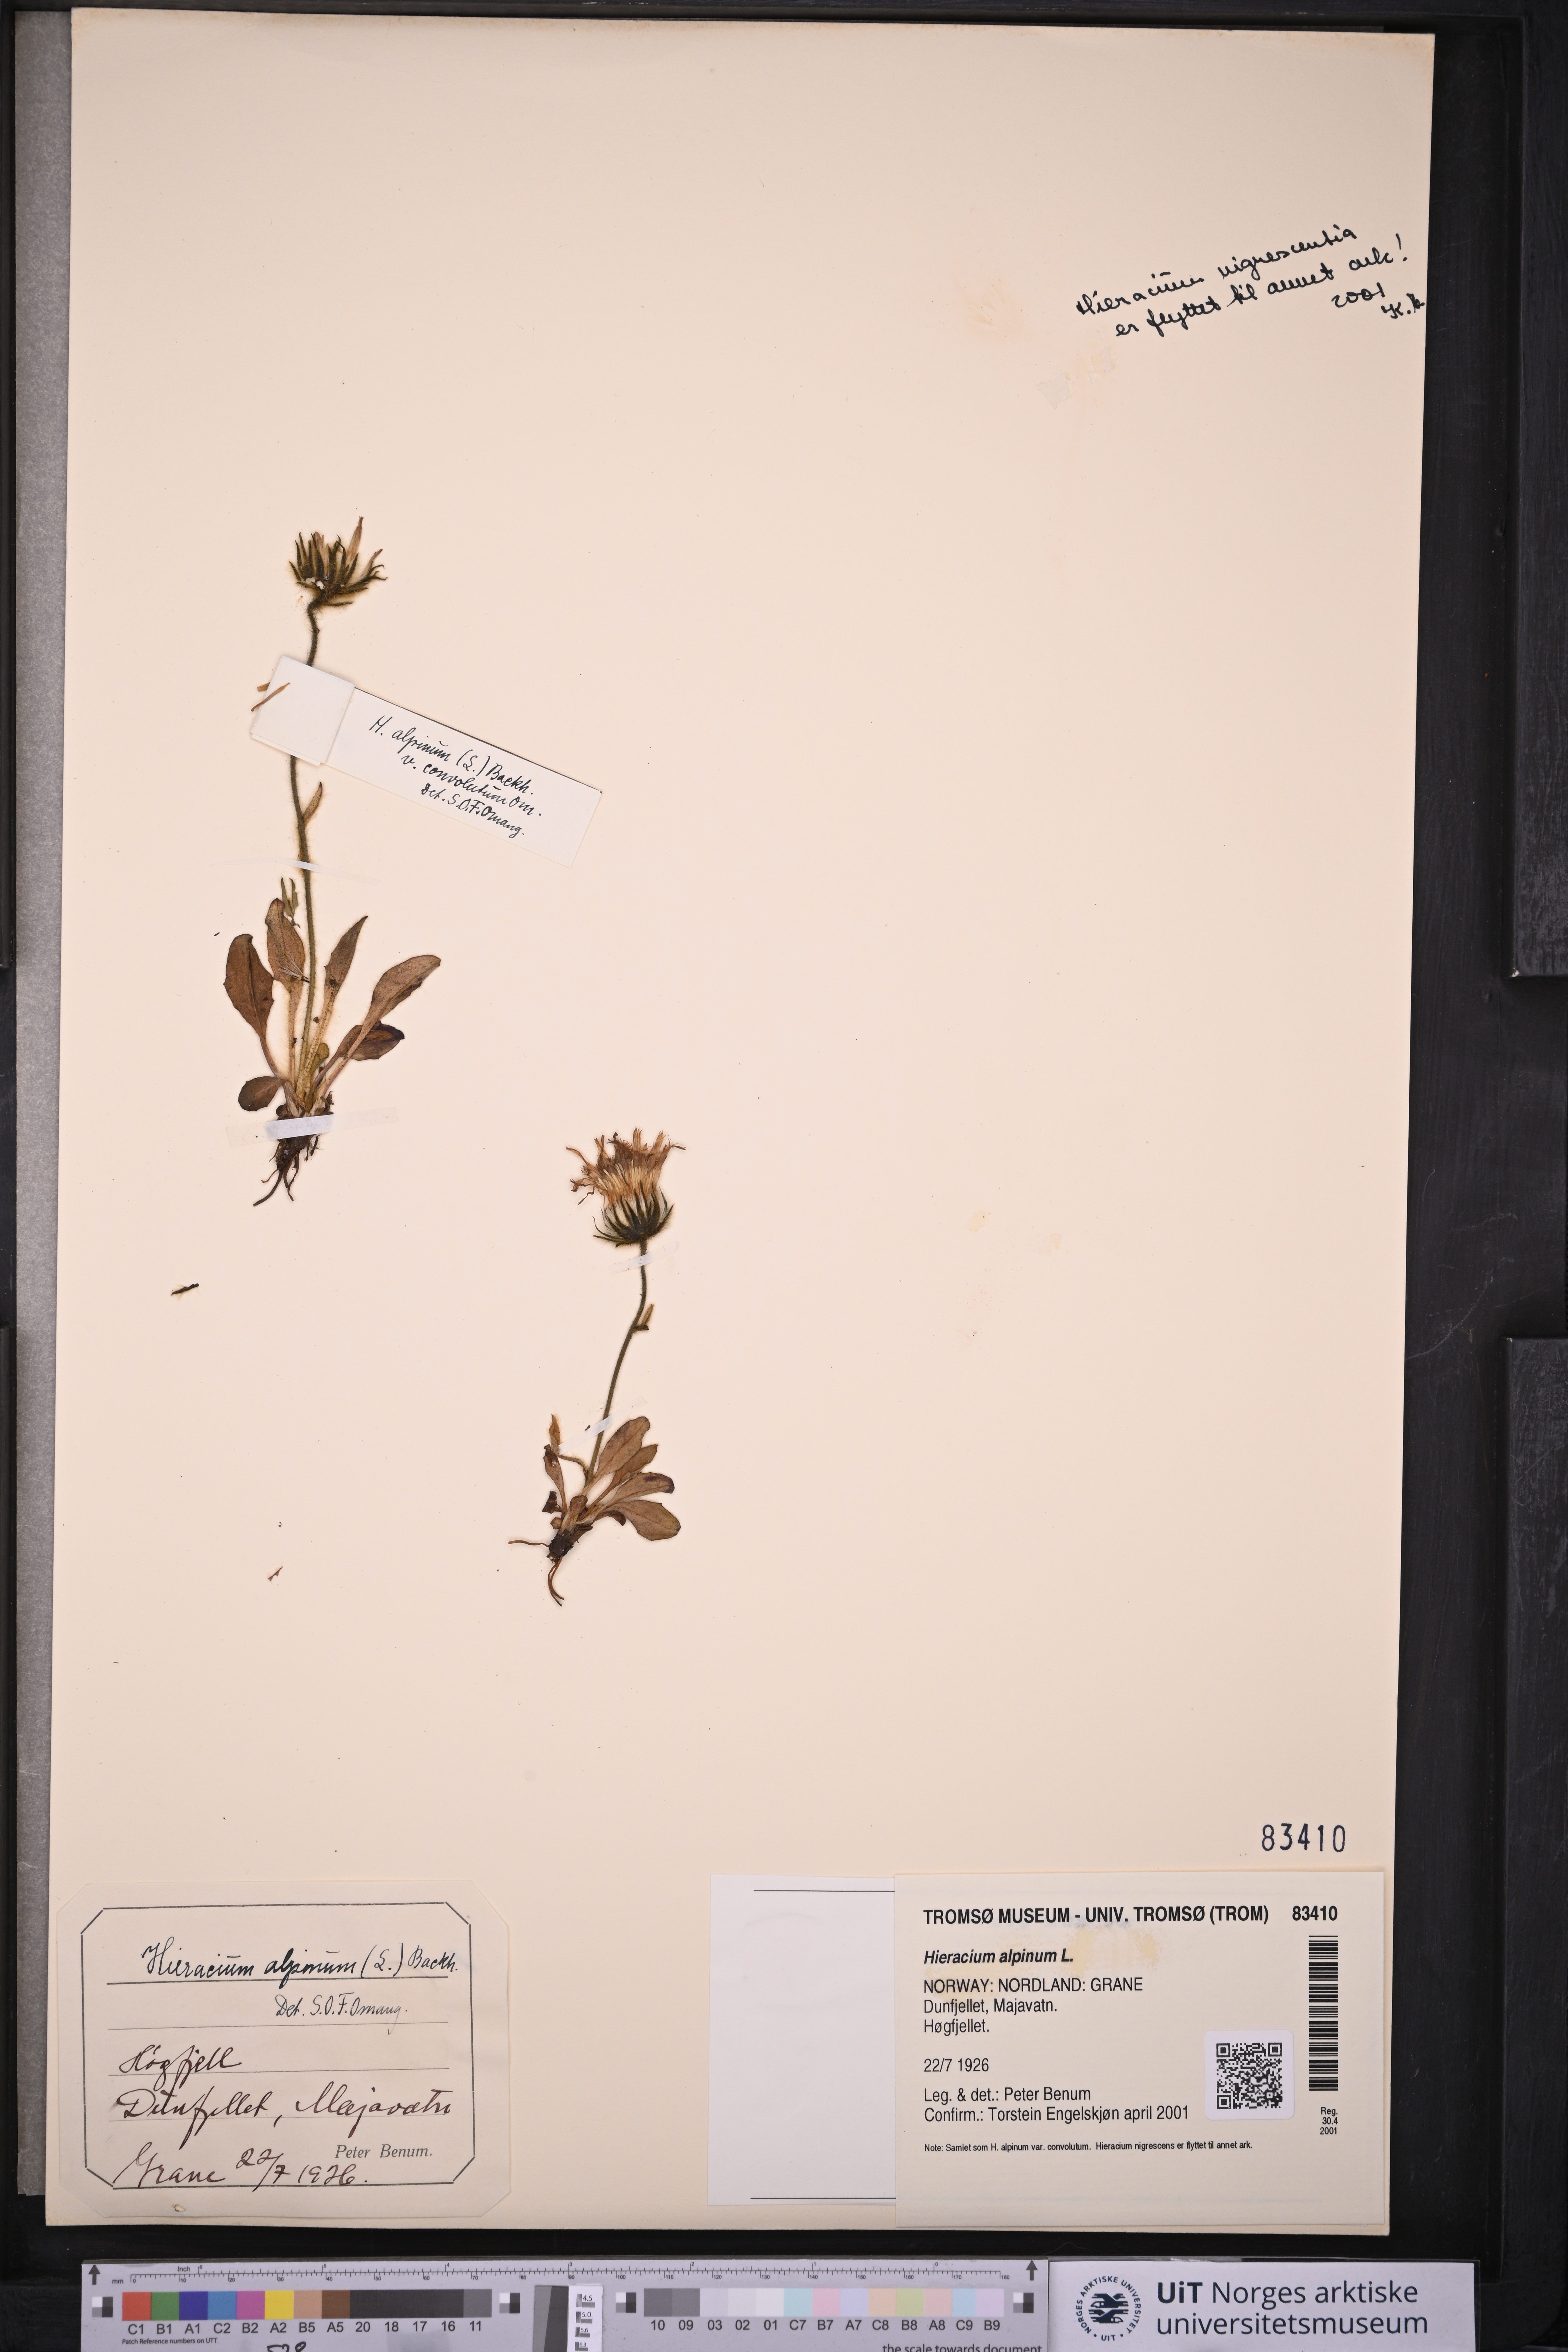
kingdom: Plantae
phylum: Tracheophyta
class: Magnoliopsida
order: Asterales
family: Asteraceae
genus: Hieracium
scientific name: Hieracium alpinum
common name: Alpine hawkweed
